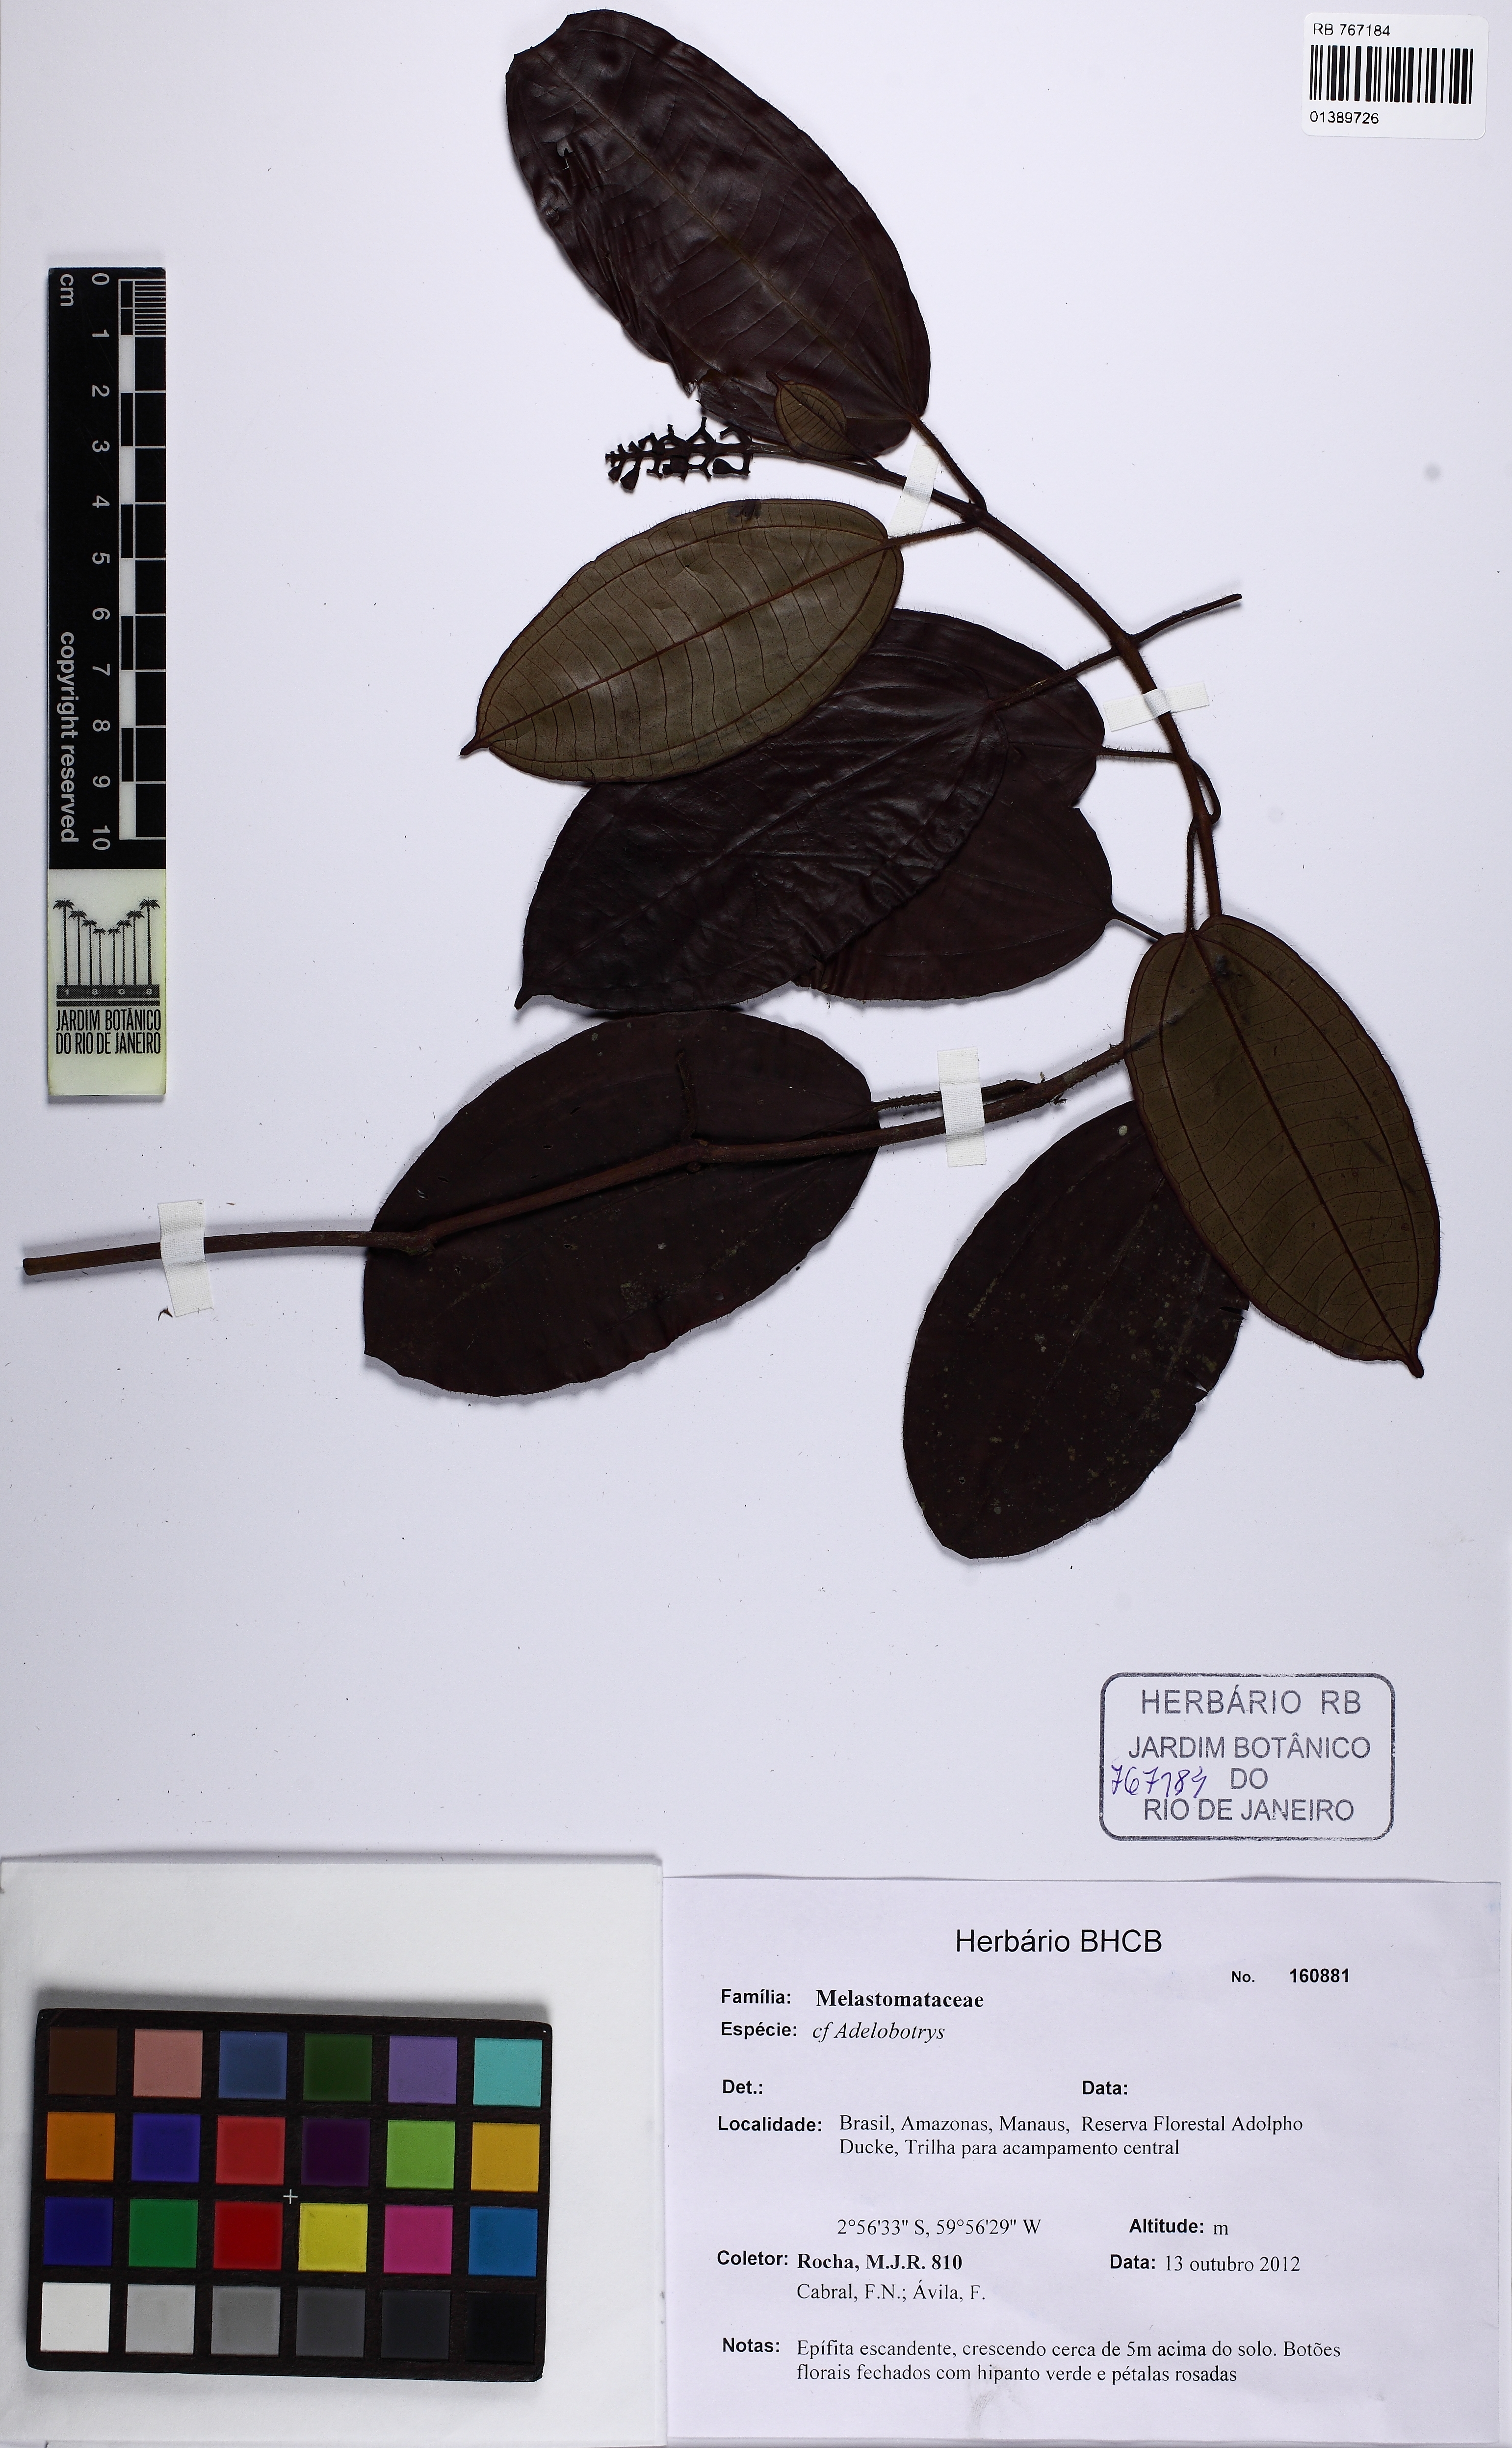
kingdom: Plantae
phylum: Tracheophyta
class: Magnoliopsida
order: Myrtales
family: Melastomataceae
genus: Adelobotrys
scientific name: Adelobotrys
